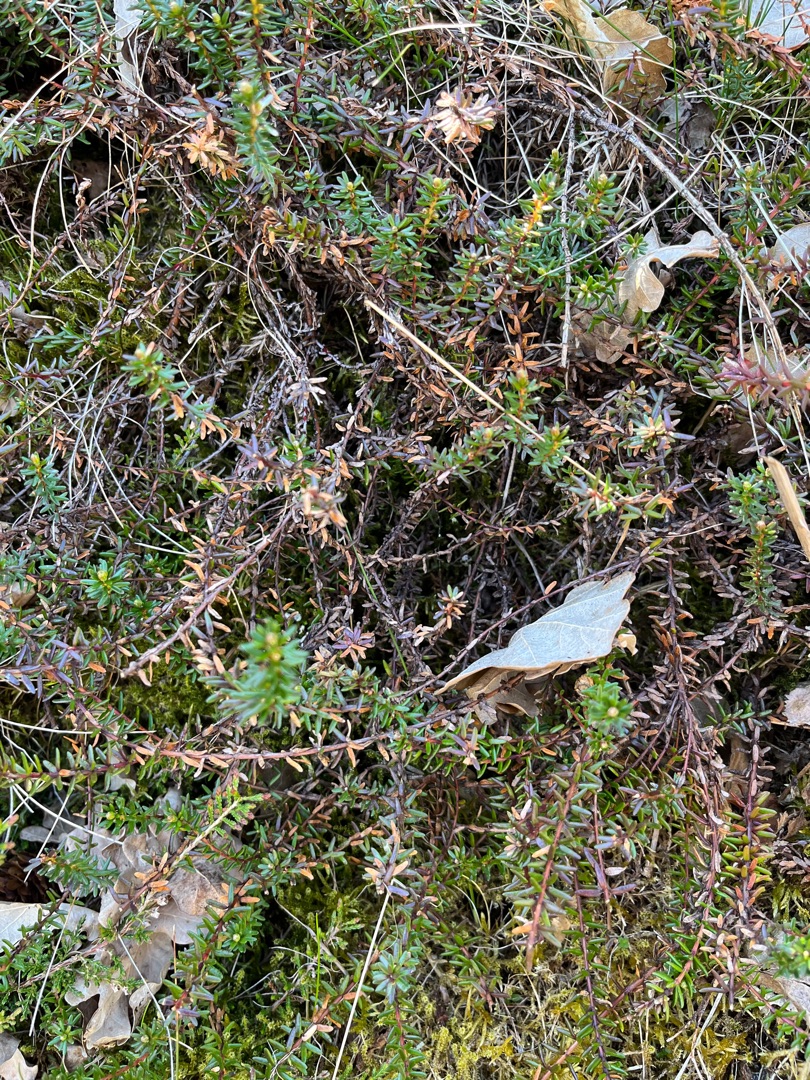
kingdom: Plantae
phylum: Tracheophyta
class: Magnoliopsida
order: Ericales
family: Ericaceae
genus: Empetrum
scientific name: Empetrum nigrum
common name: Revling
